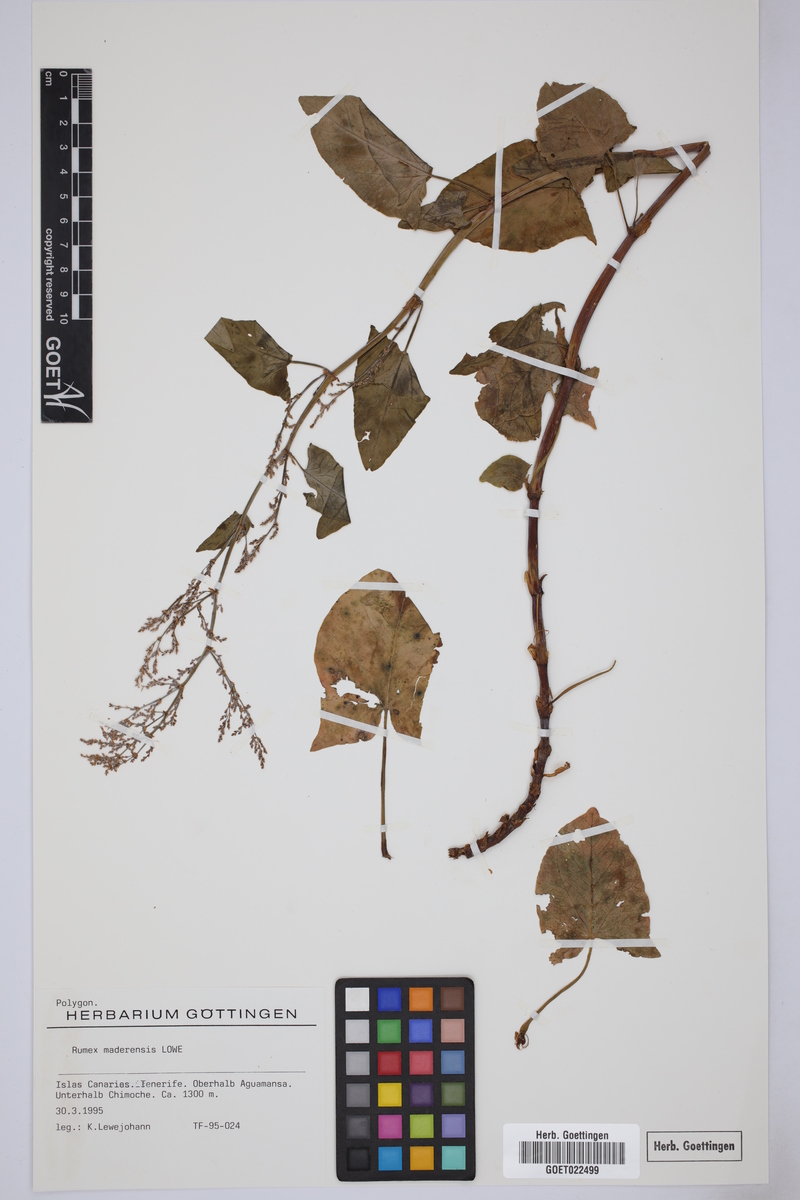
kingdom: Plantae
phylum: Tracheophyta
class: Magnoliopsida
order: Caryophyllales
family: Polygonaceae
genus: Rumex
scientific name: Rumex maderensis
